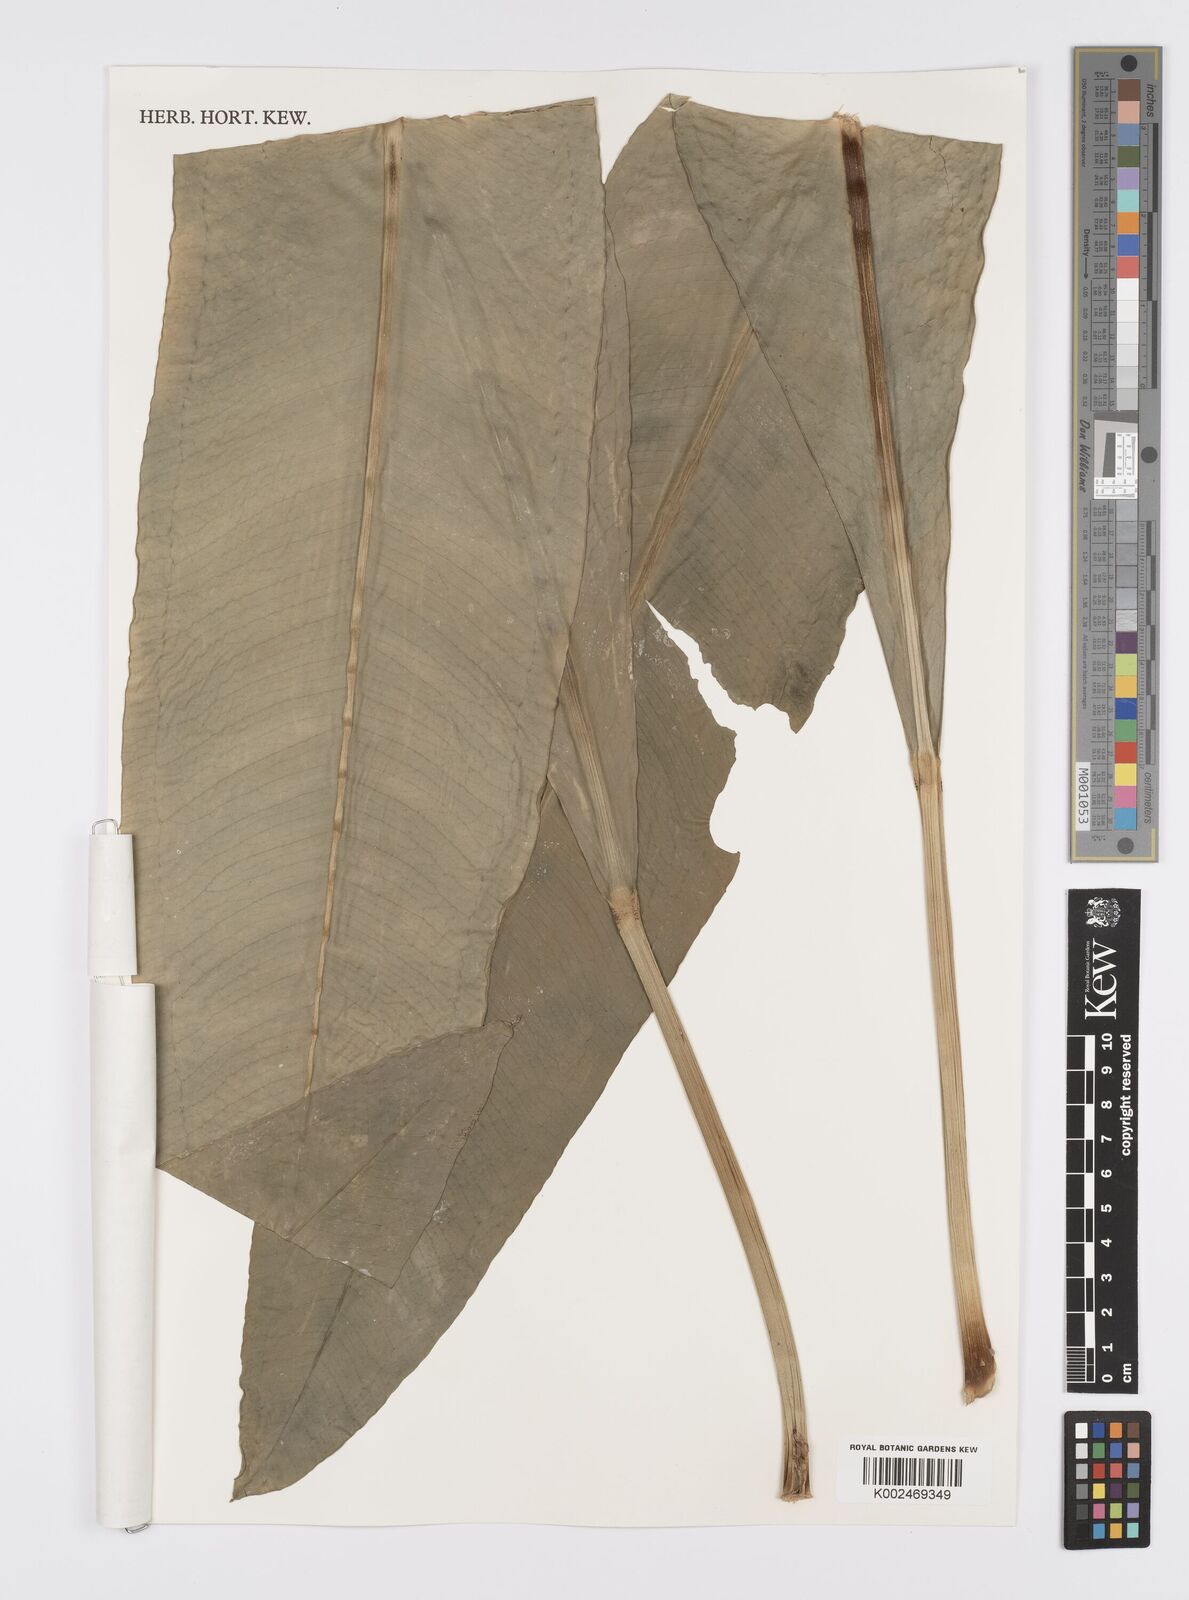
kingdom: Plantae
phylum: Tracheophyta
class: Liliopsida
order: Alismatales
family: Araceae
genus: Anthurium
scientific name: Anthurium
